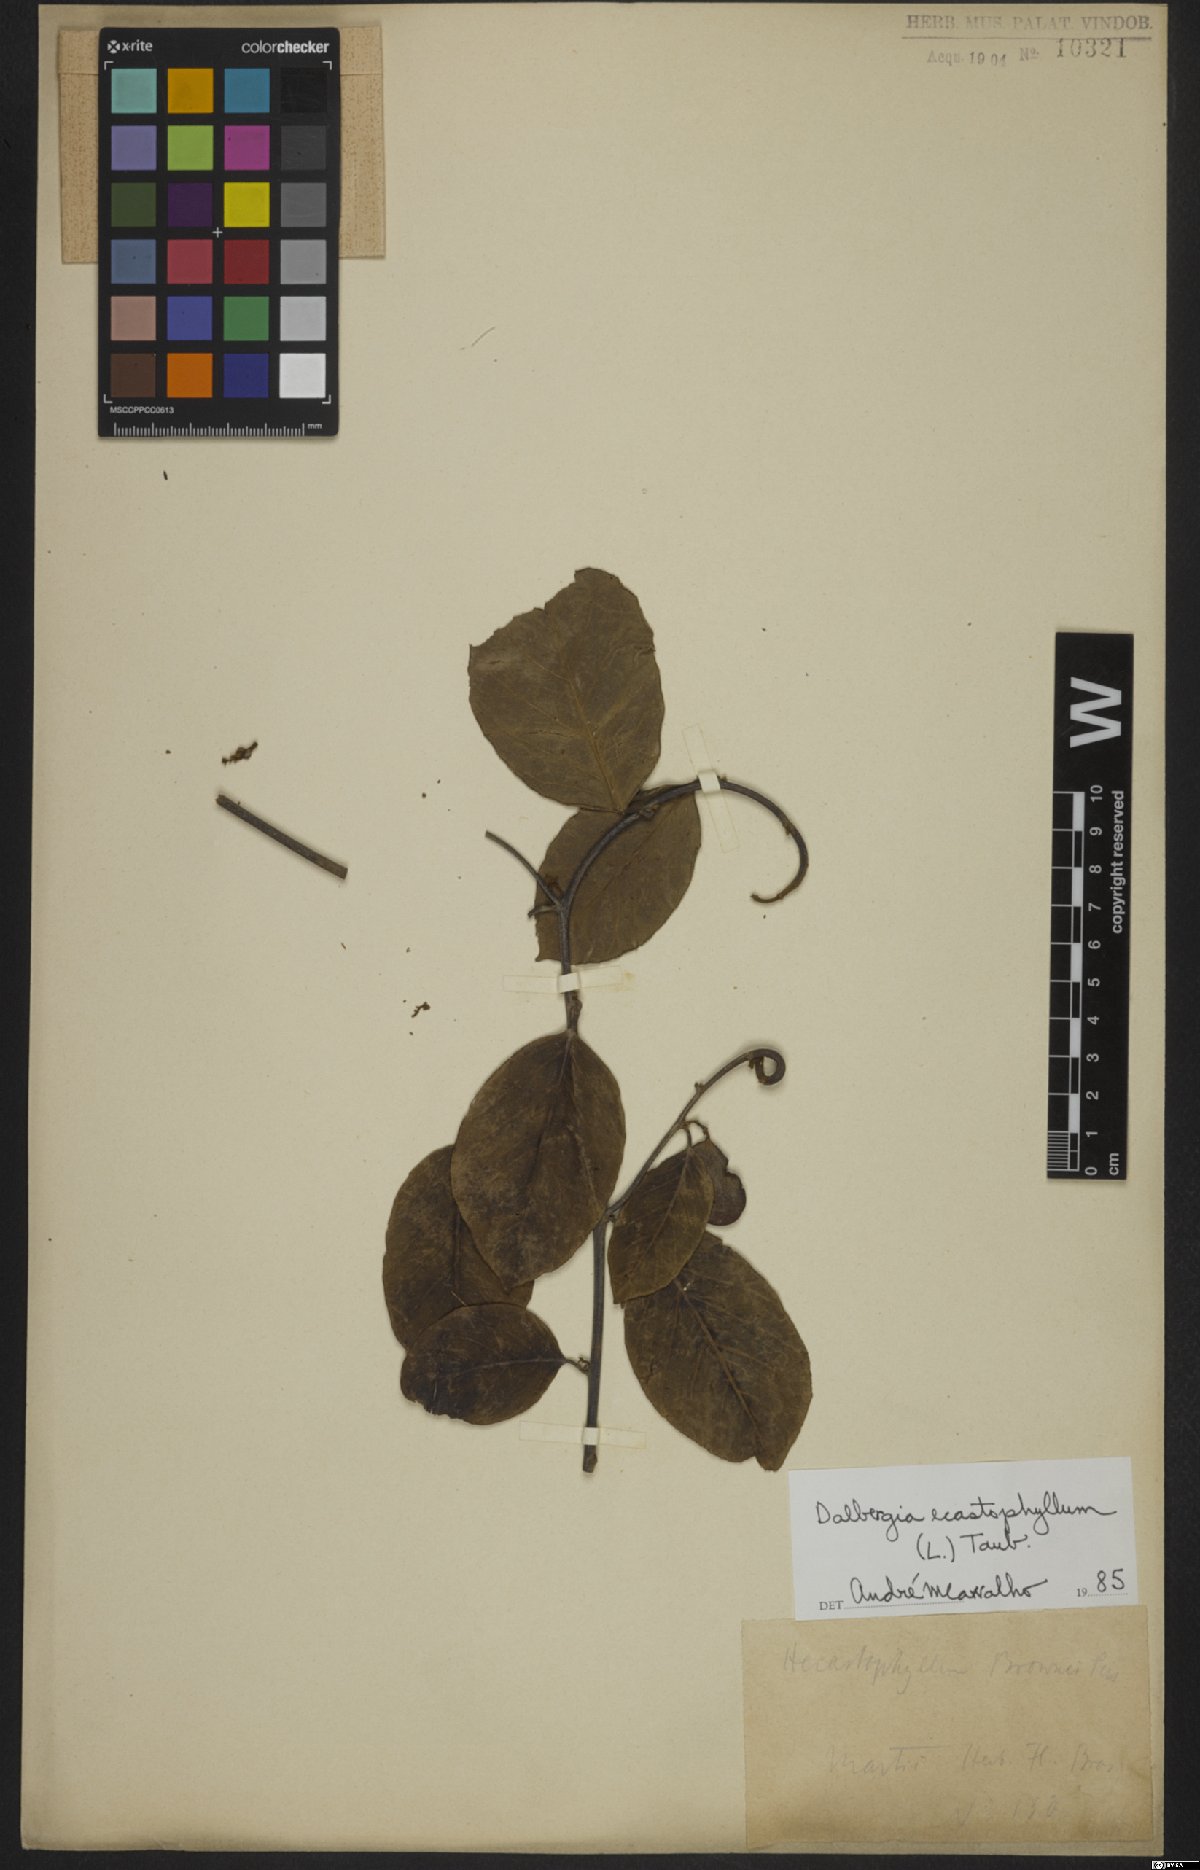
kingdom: Plantae
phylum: Tracheophyta
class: Magnoliopsida
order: Fabales
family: Fabaceae
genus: Dalbergia
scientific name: Dalbergia ecastaphyllum
